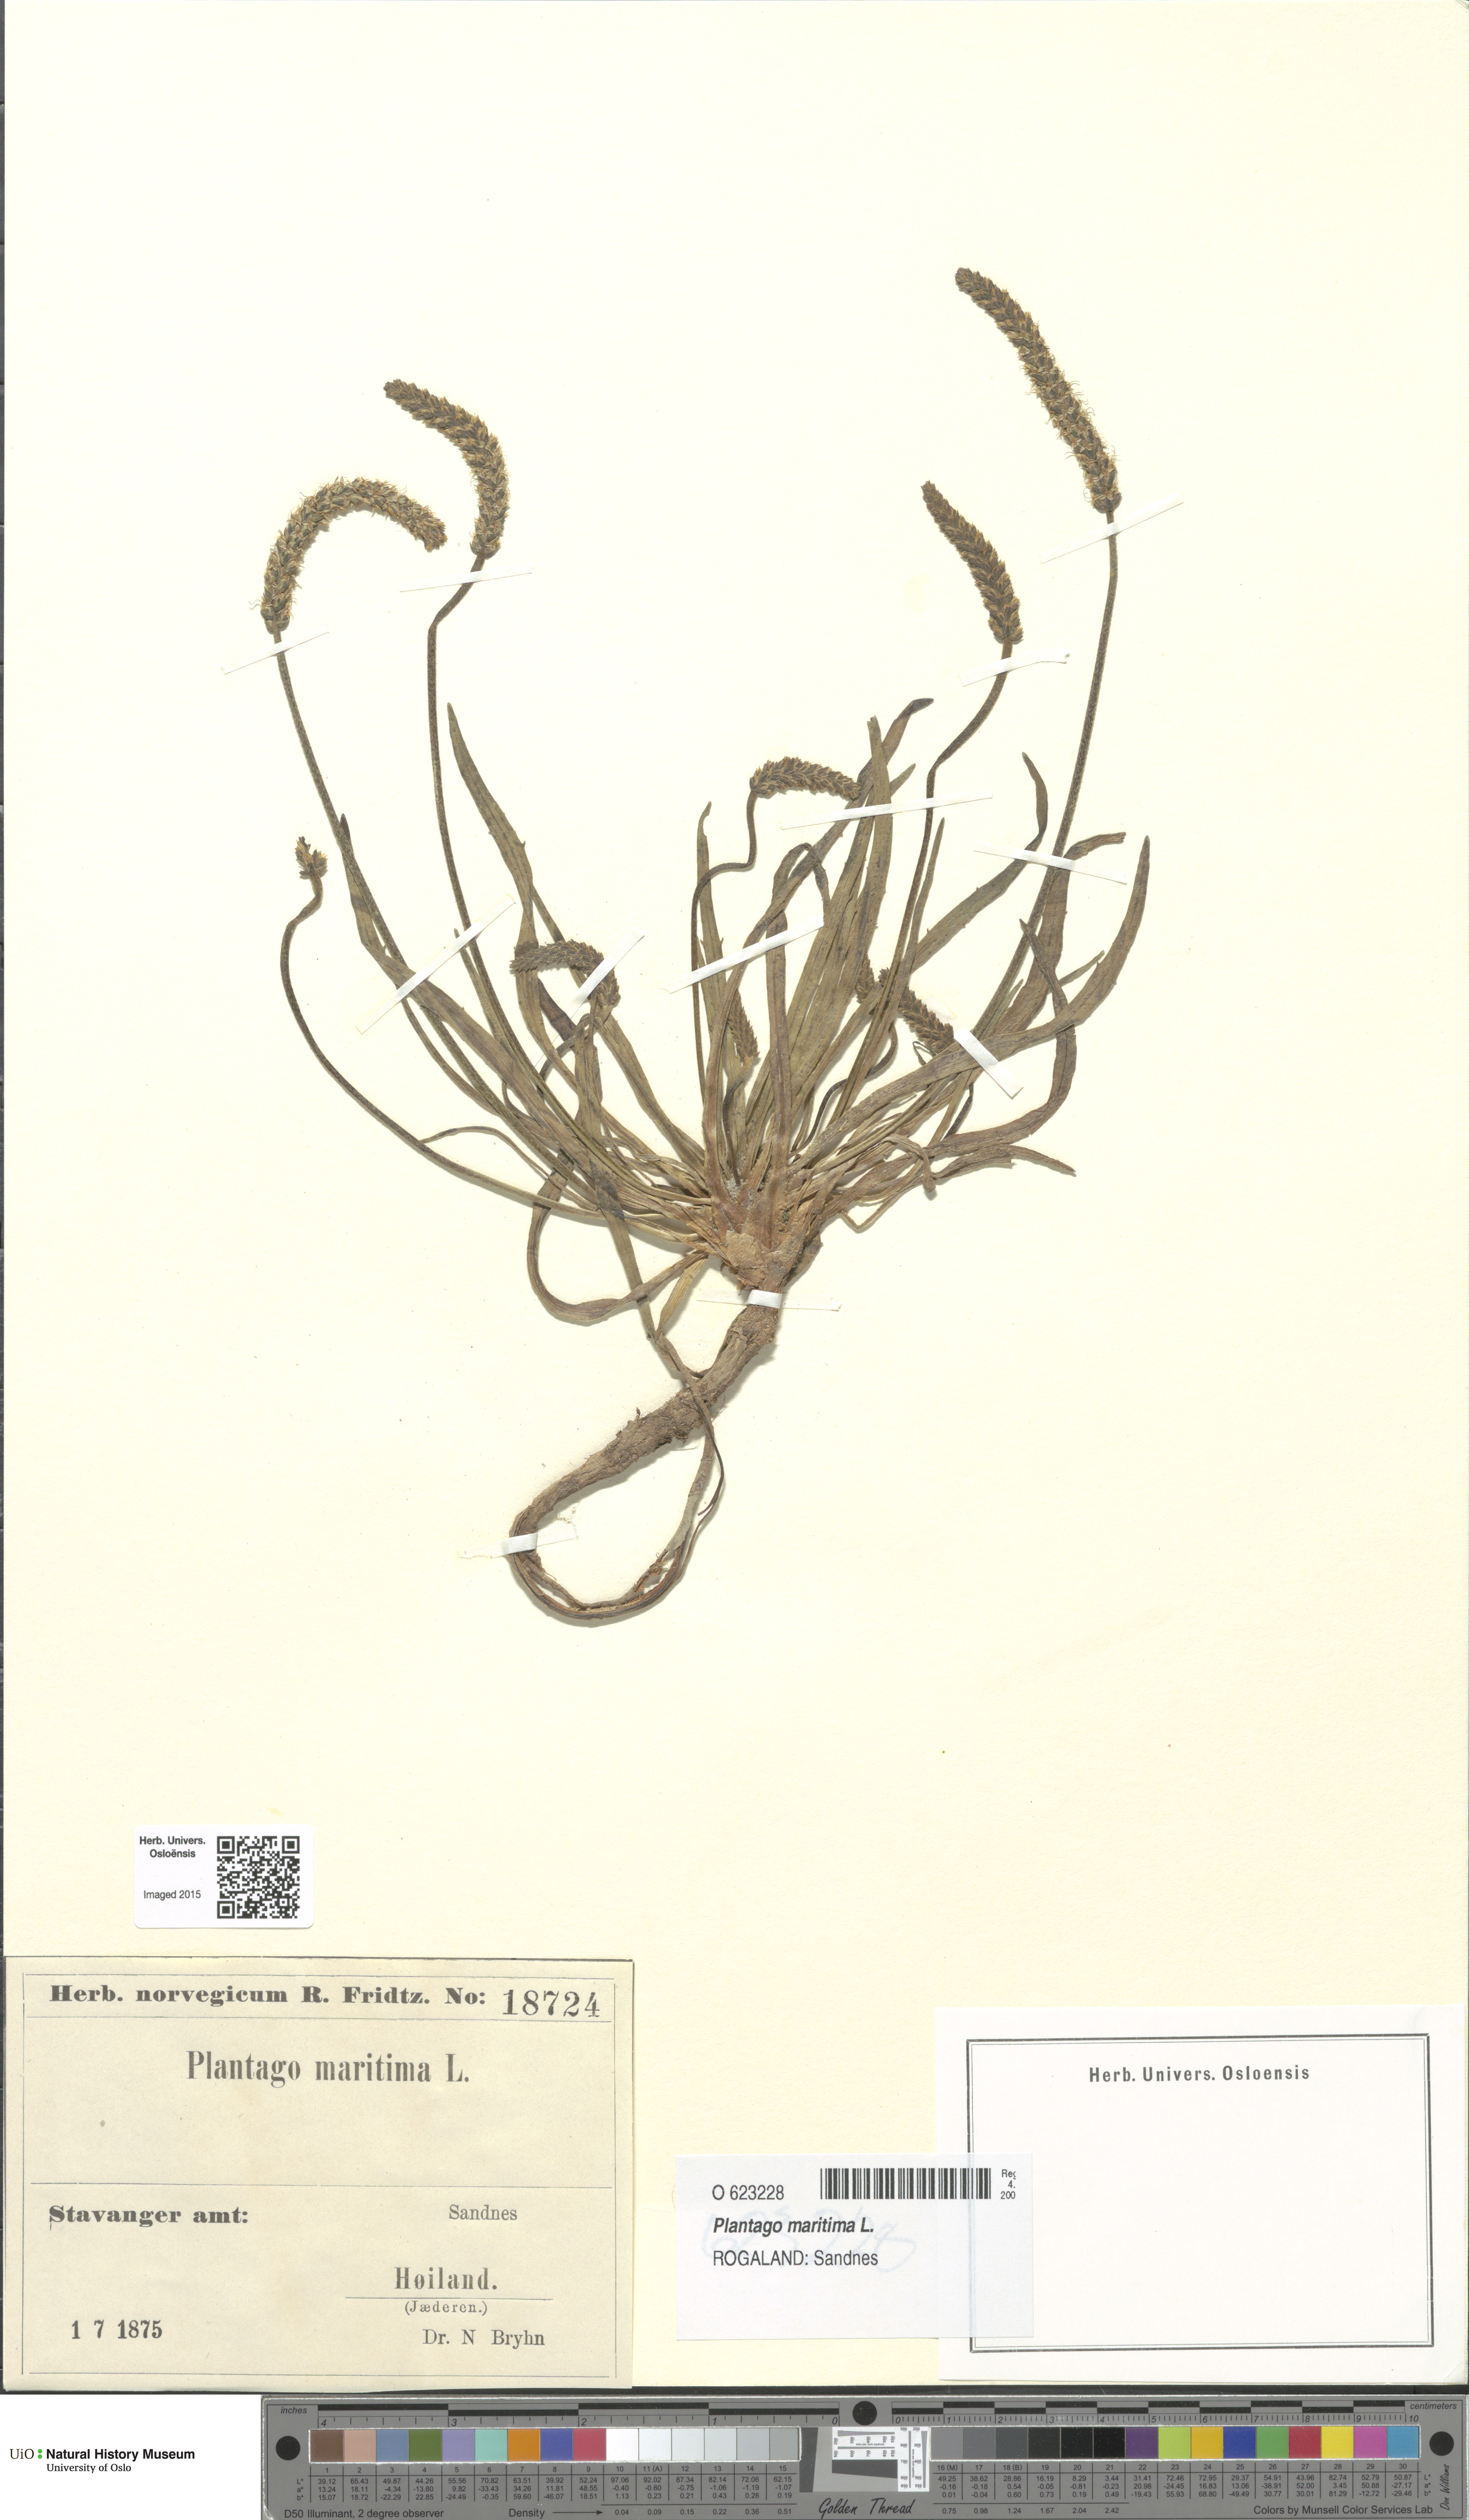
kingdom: Plantae
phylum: Tracheophyta
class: Magnoliopsida
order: Lamiales
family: Plantaginaceae
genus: Plantago
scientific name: Plantago maritima
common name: Sea plantain
